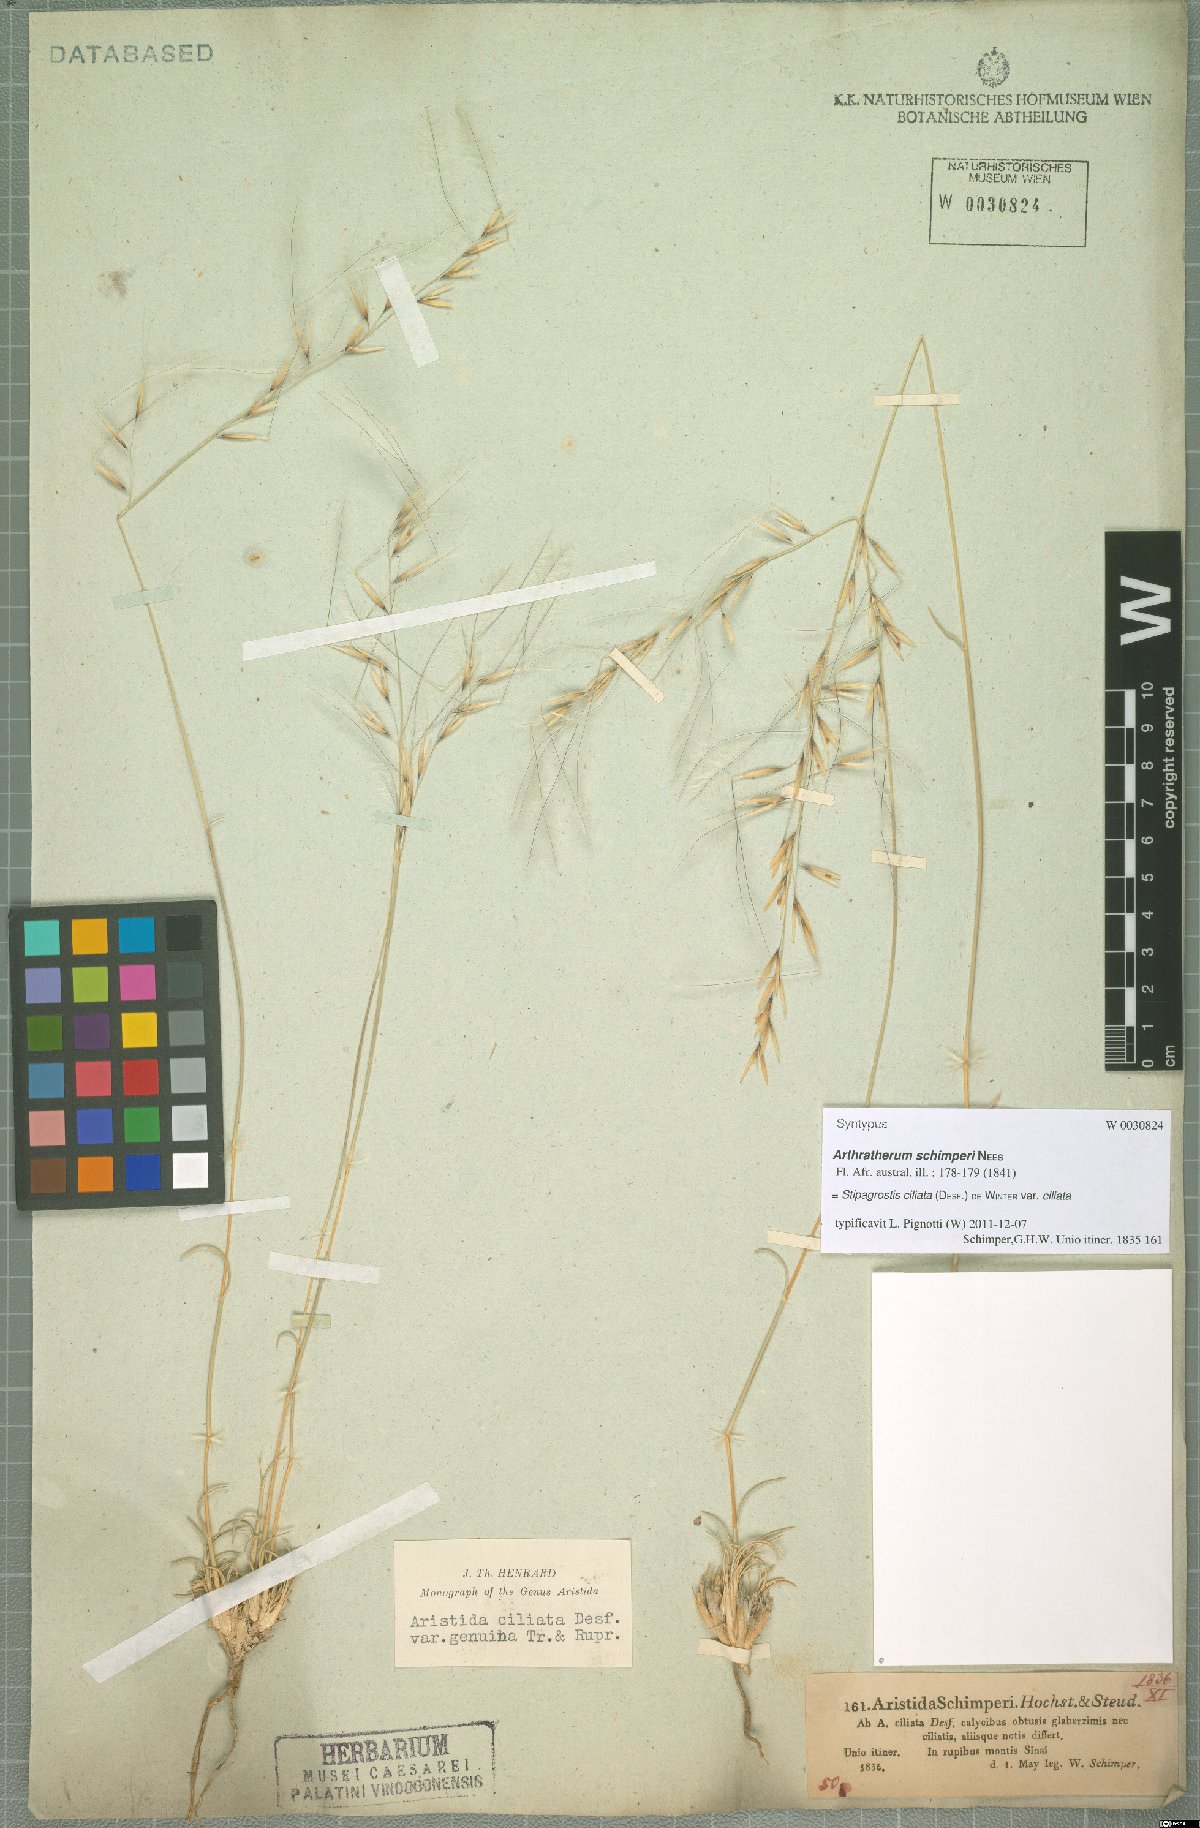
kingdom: Plantae
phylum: Tracheophyta
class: Liliopsida
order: Poales
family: Poaceae
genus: Stipagrostis
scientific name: Stipagrostis ciliata
